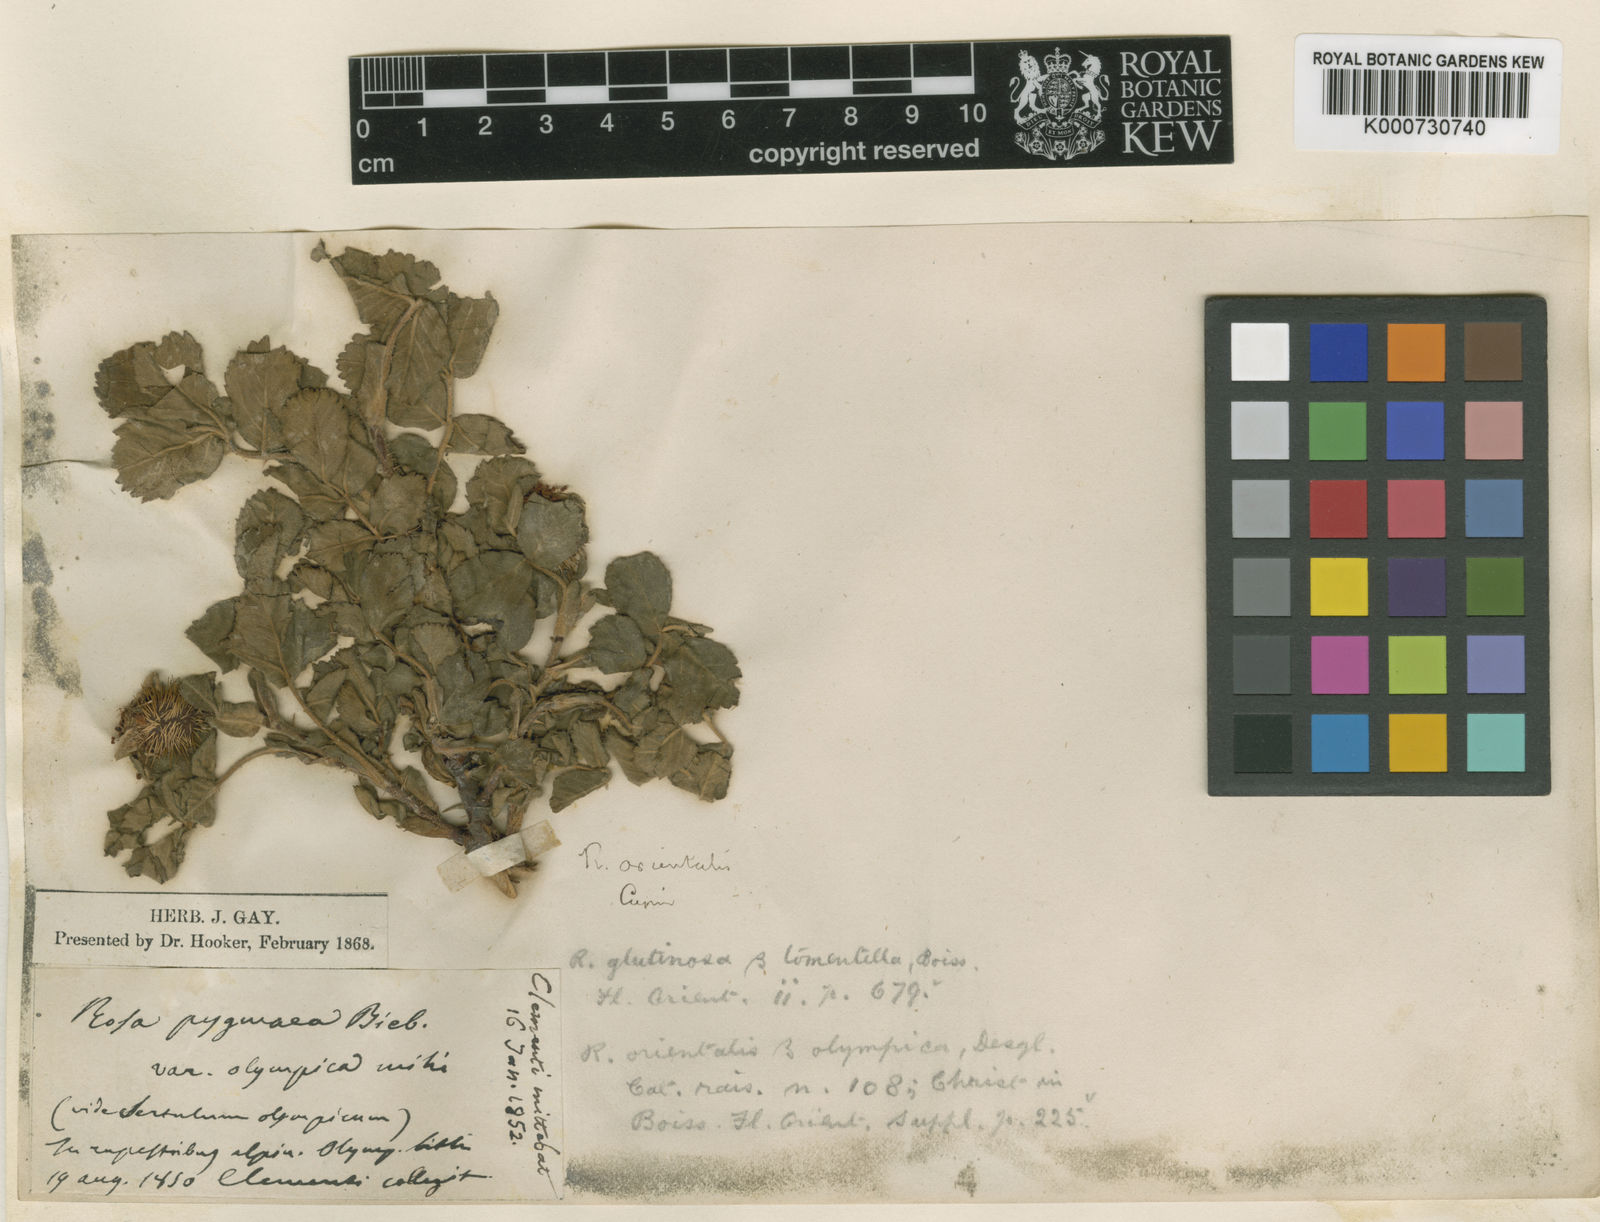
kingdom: Plantae
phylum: Tracheophyta
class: Magnoliopsida
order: Rosales
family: Rosaceae
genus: Rosa
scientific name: Rosa heckeliana
